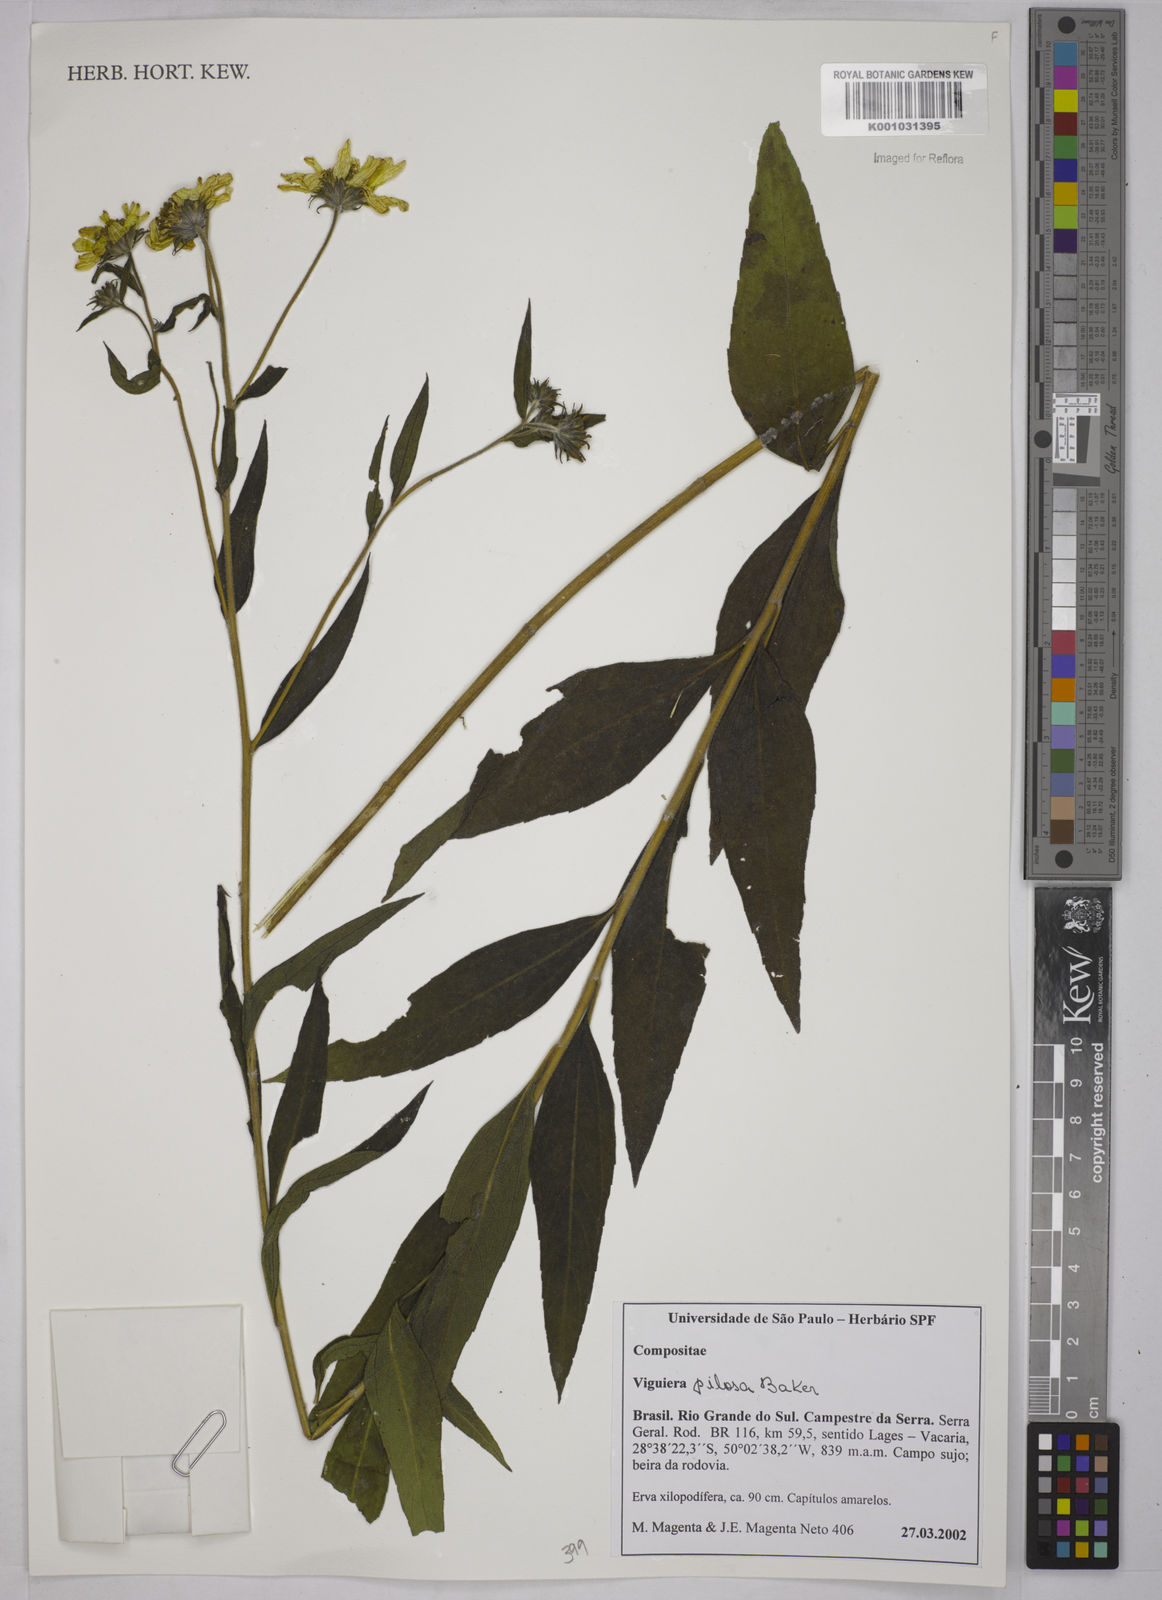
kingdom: Plantae
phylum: Tracheophyta
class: Magnoliopsida
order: Asterales
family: Asteraceae
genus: Aldama
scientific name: Aldama pilosa
